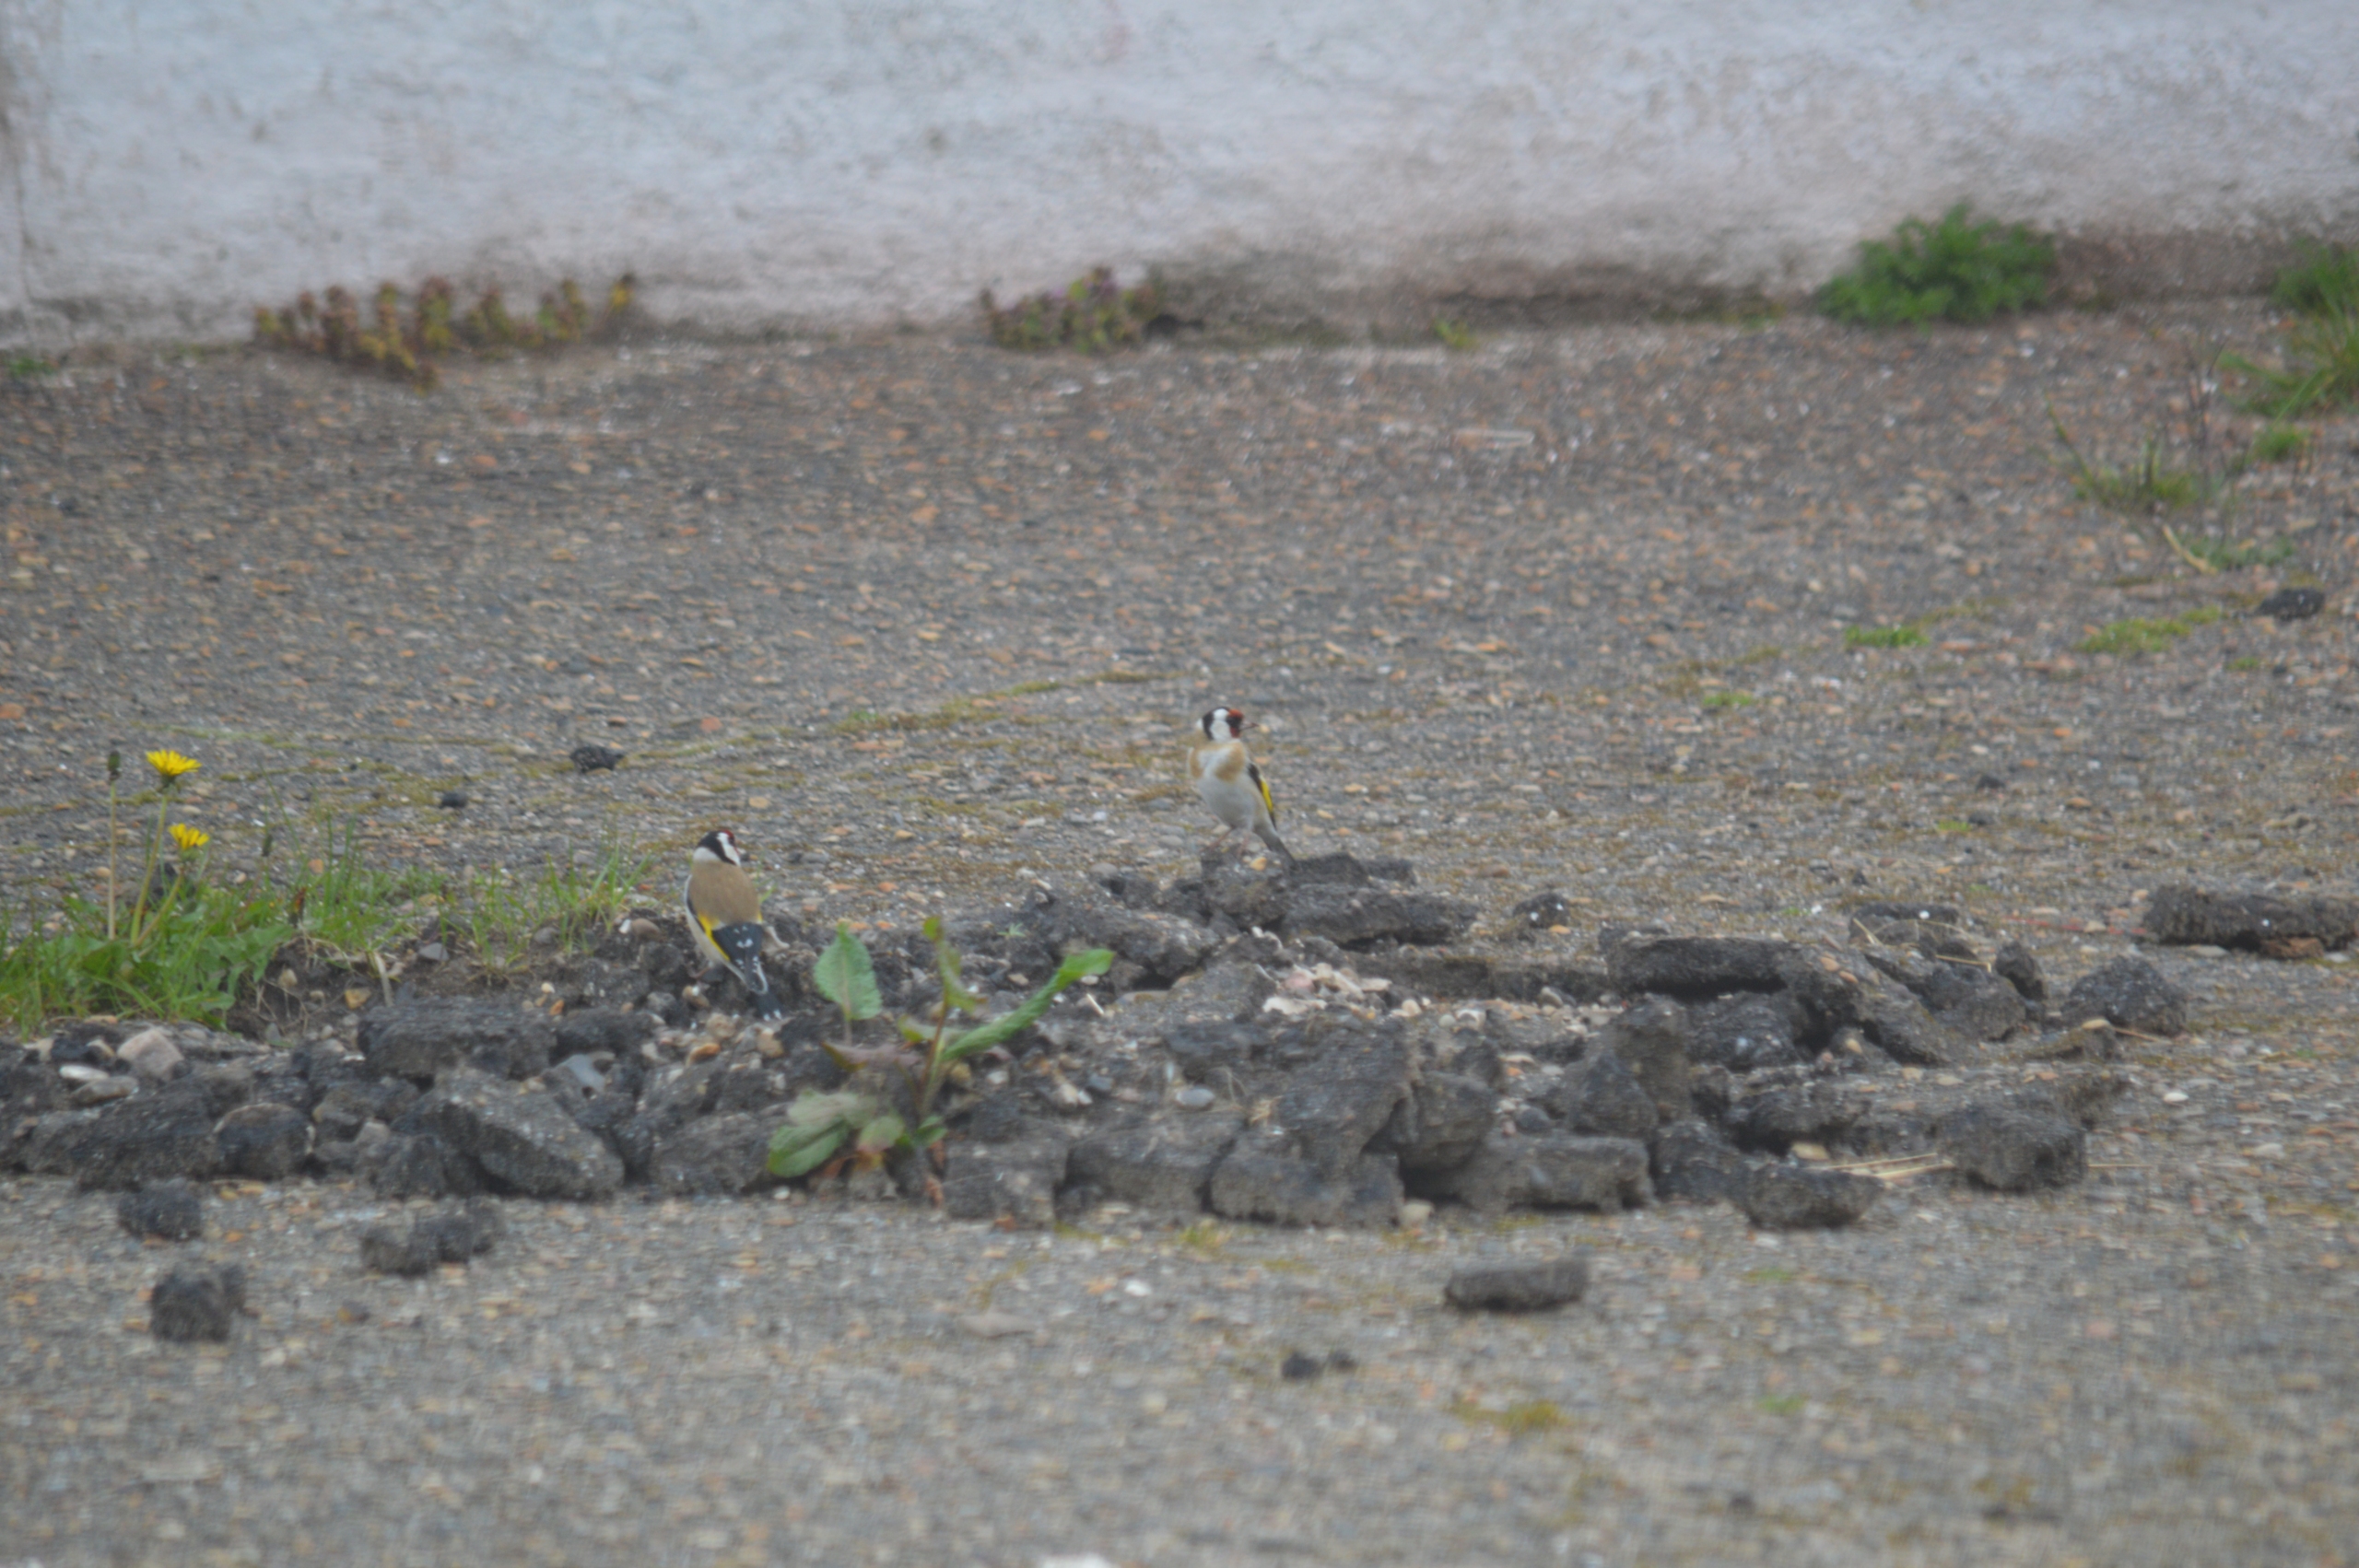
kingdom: Animalia
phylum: Chordata
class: Aves
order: Passeriformes
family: Fringillidae
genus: Carduelis
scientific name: Carduelis carduelis
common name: Stillits
